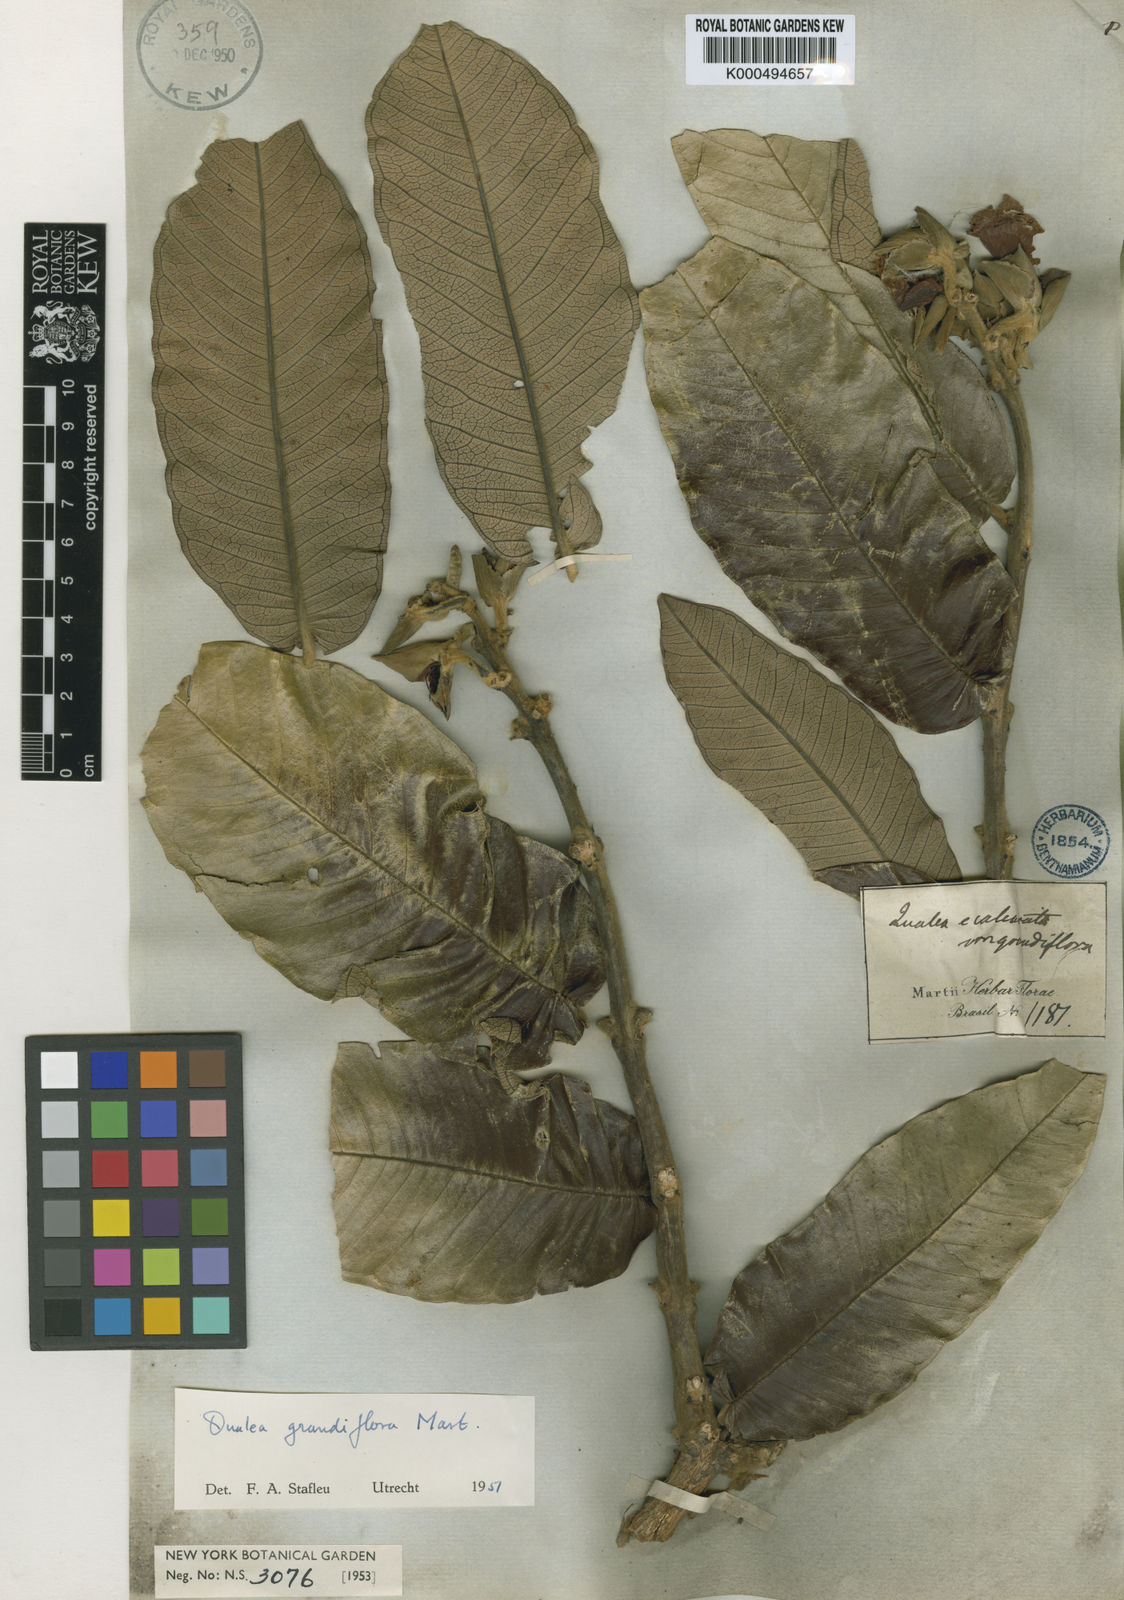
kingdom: Plantae
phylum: Tracheophyta
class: Magnoliopsida
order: Myrtales
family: Vochysiaceae
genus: Qualea
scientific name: Qualea grandiflora
